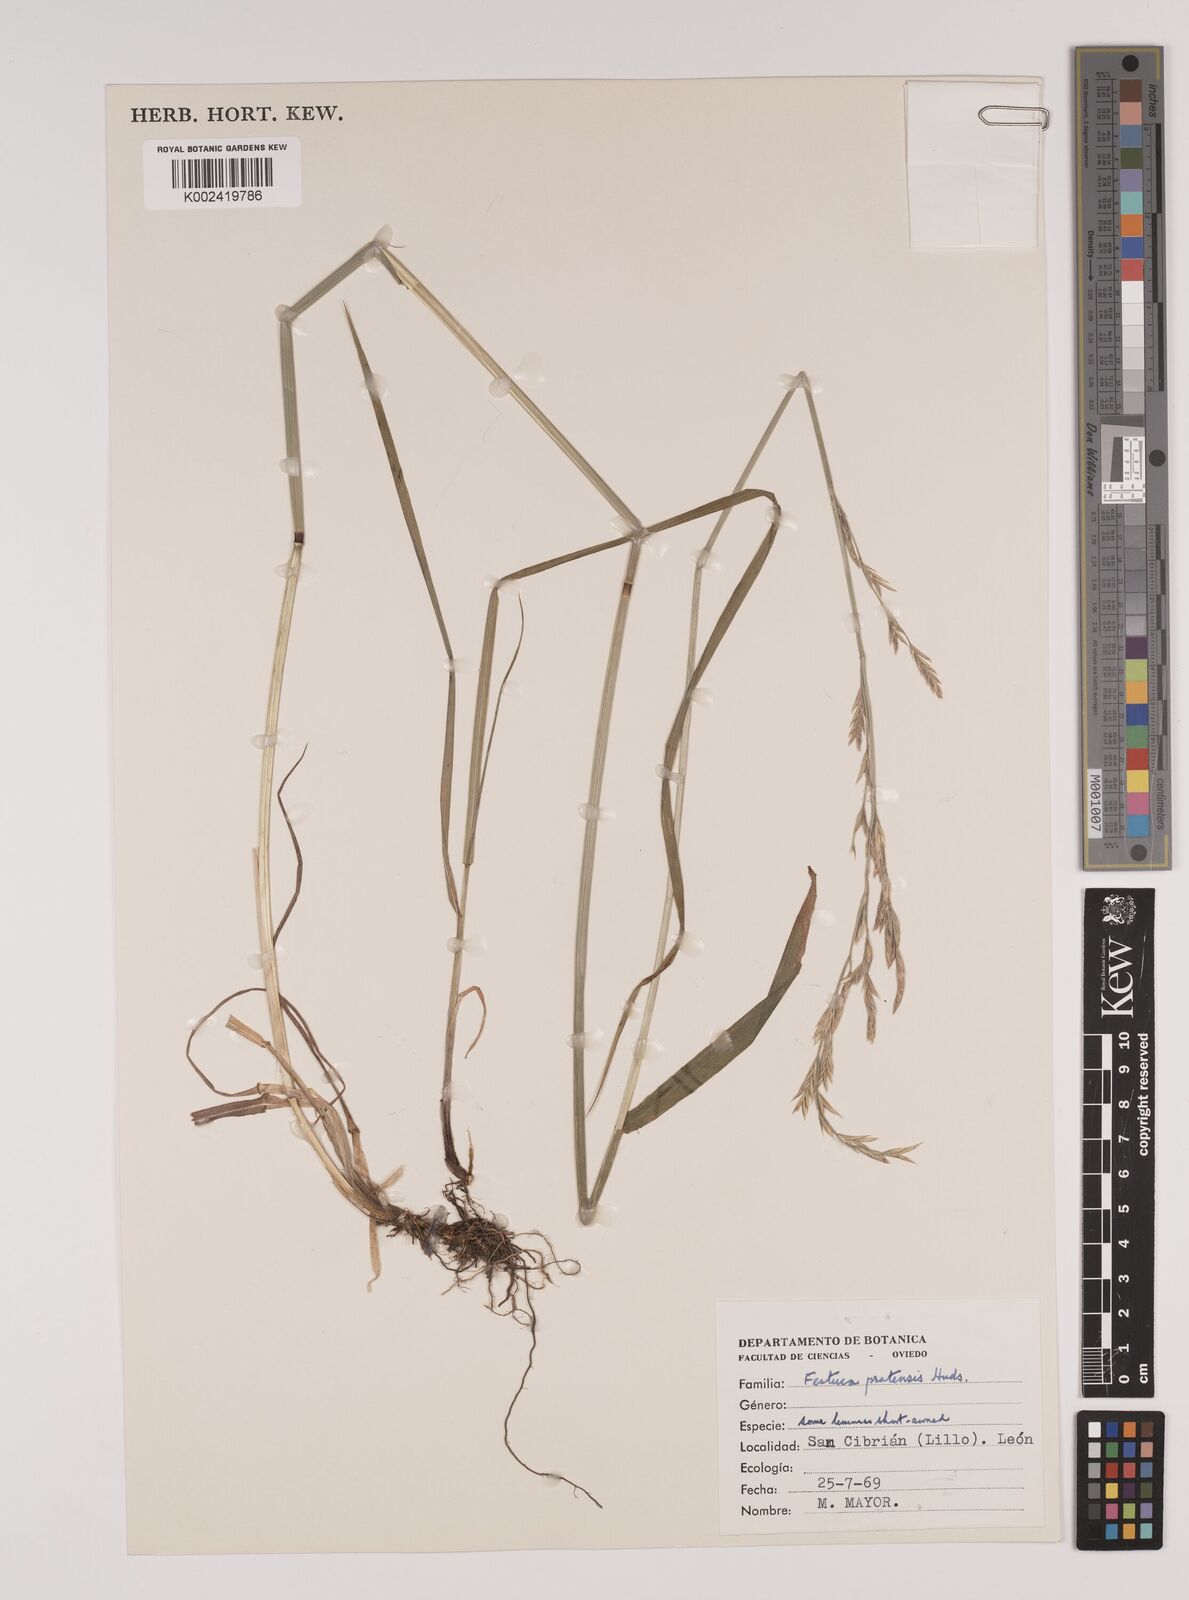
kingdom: Plantae
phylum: Tracheophyta
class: Liliopsida
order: Poales
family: Poaceae
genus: Festuca
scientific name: Festuca
